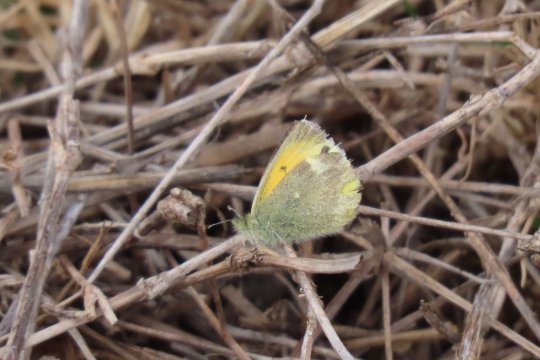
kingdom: Animalia
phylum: Arthropoda
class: Insecta
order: Lepidoptera
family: Pieridae
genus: Nathalis
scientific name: Nathalis iole
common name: Dainty Sulphur
